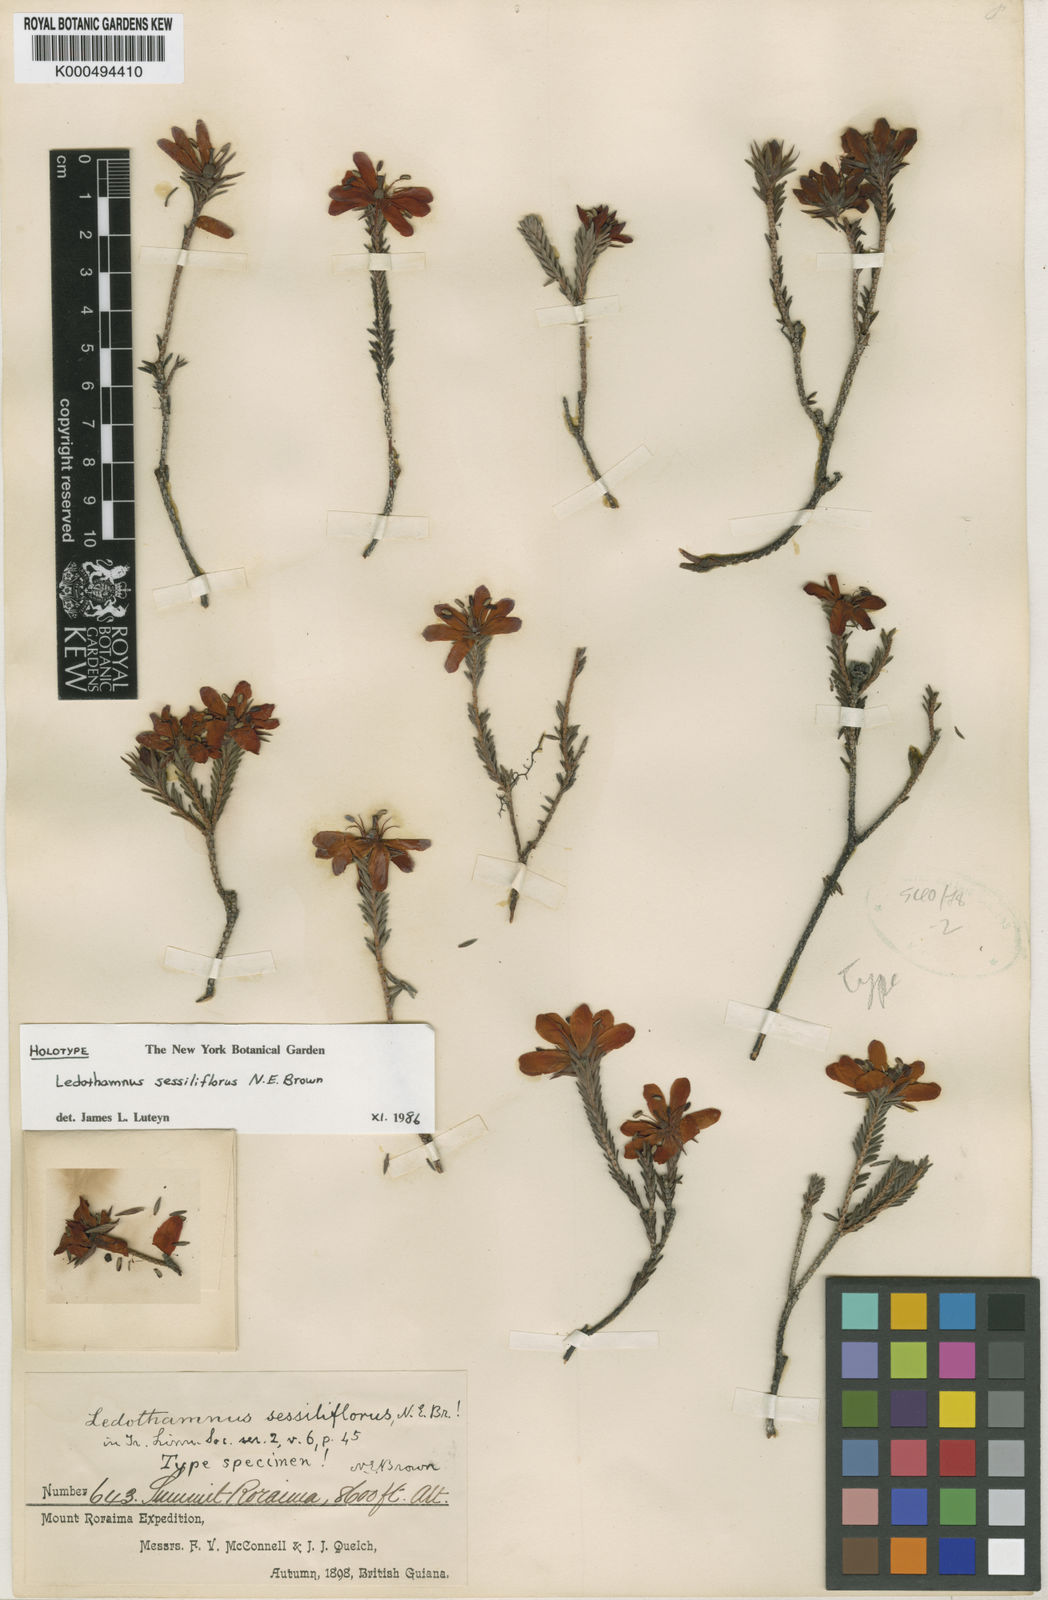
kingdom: Plantae
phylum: Tracheophyta
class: Magnoliopsida
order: Ericales
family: Ericaceae
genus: Ledothamnus
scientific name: Ledothamnus sessiliflorus
